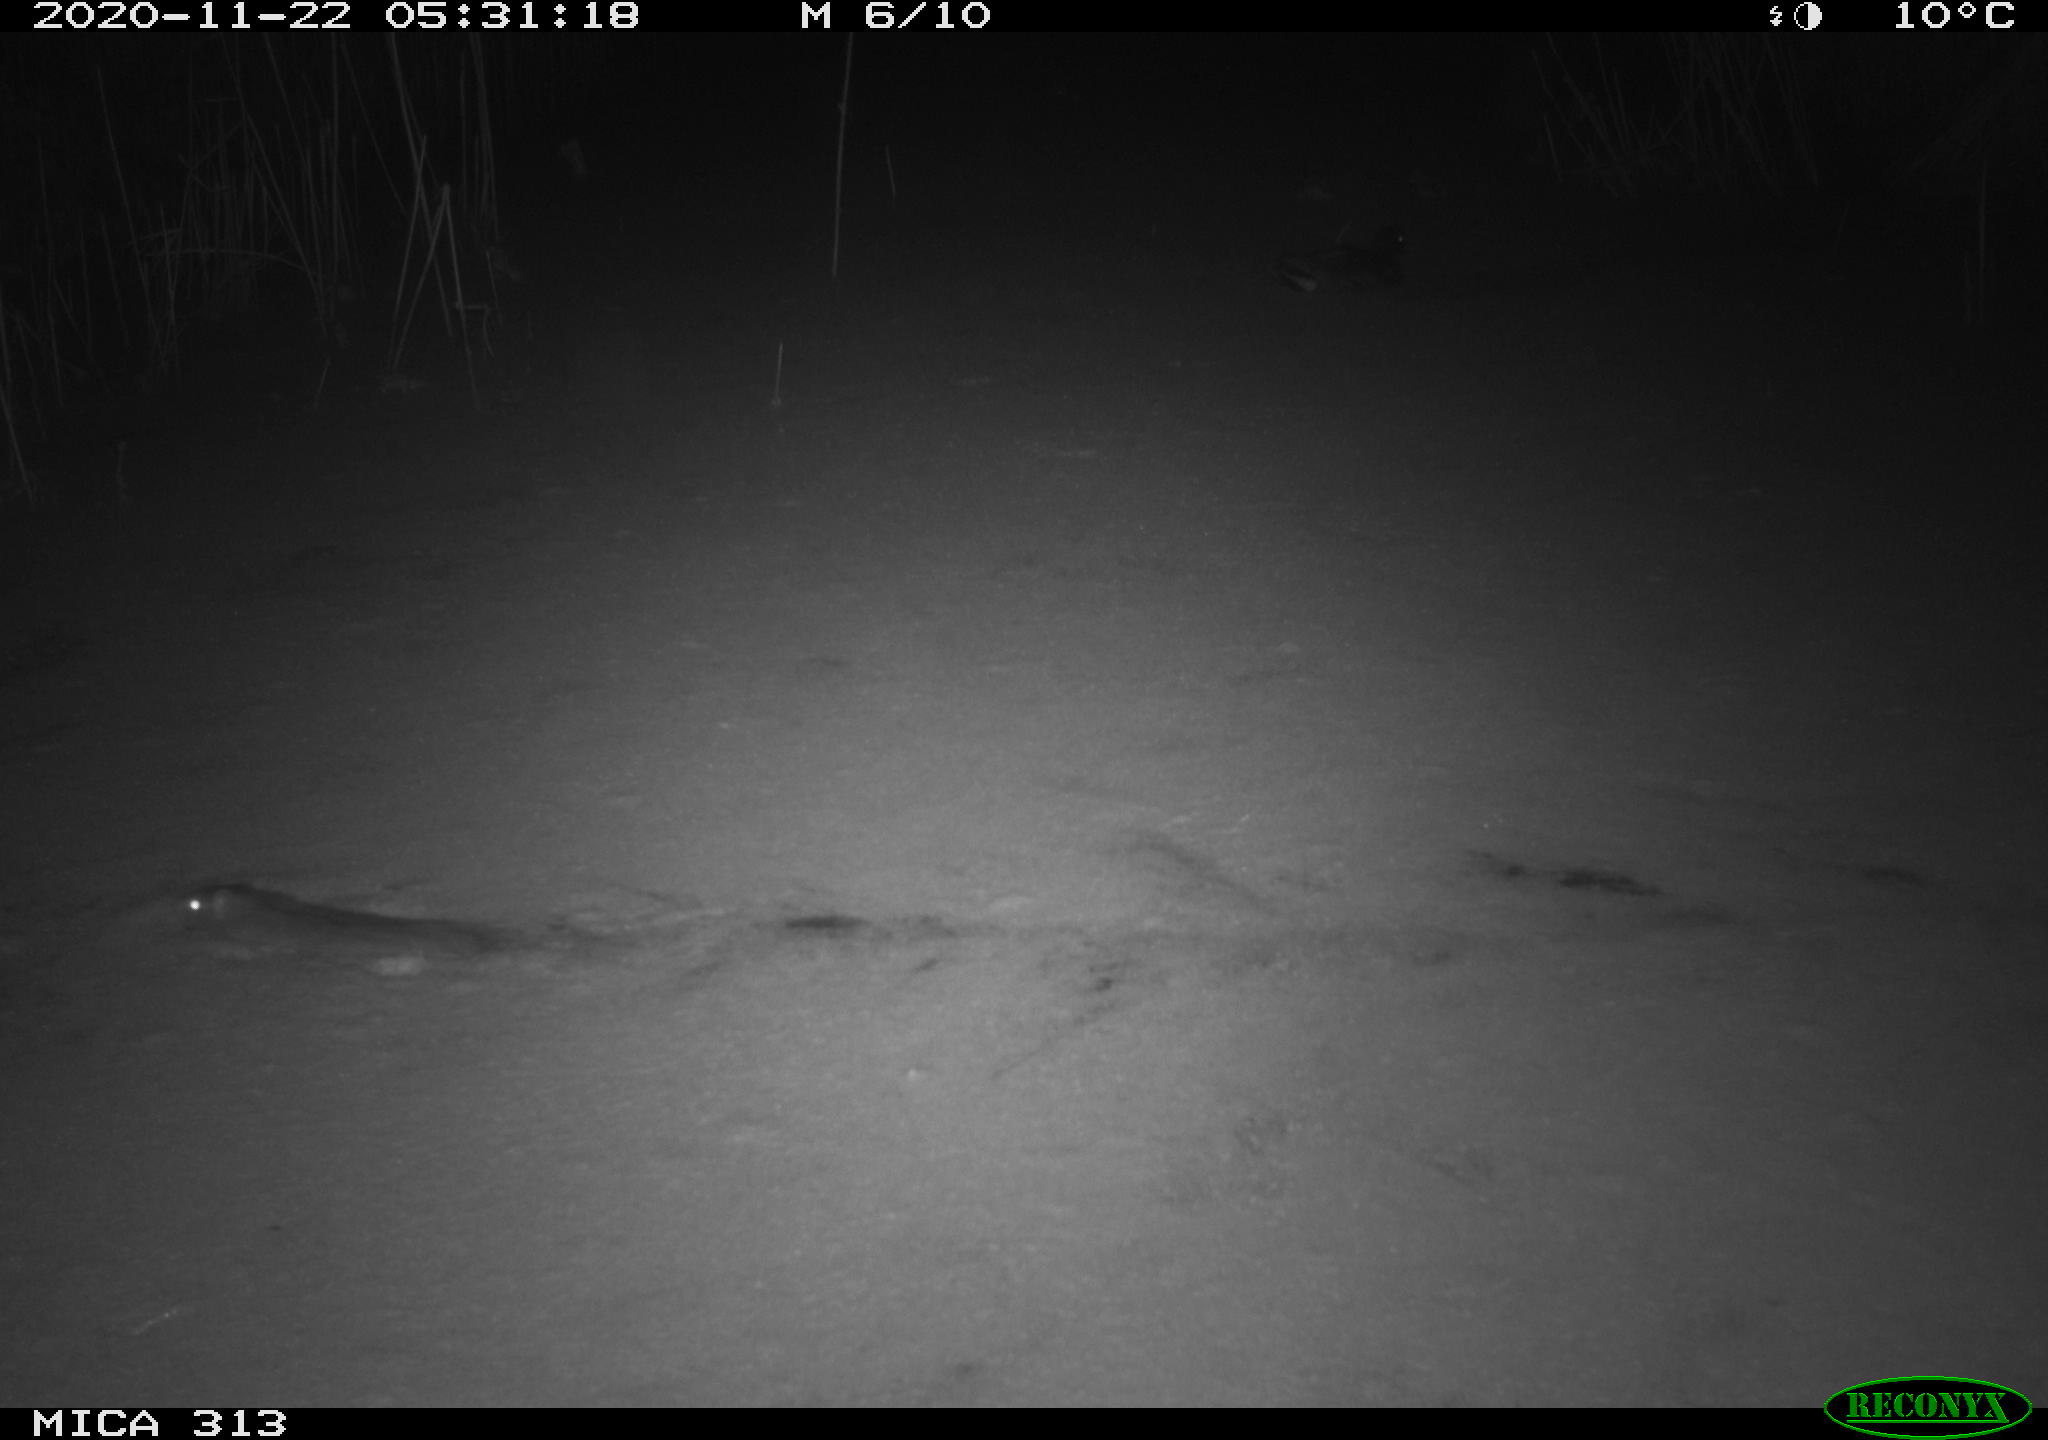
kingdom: Animalia
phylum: Chordata
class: Mammalia
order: Rodentia
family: Muridae
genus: Rattus
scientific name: Rattus norvegicus
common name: Brown rat
